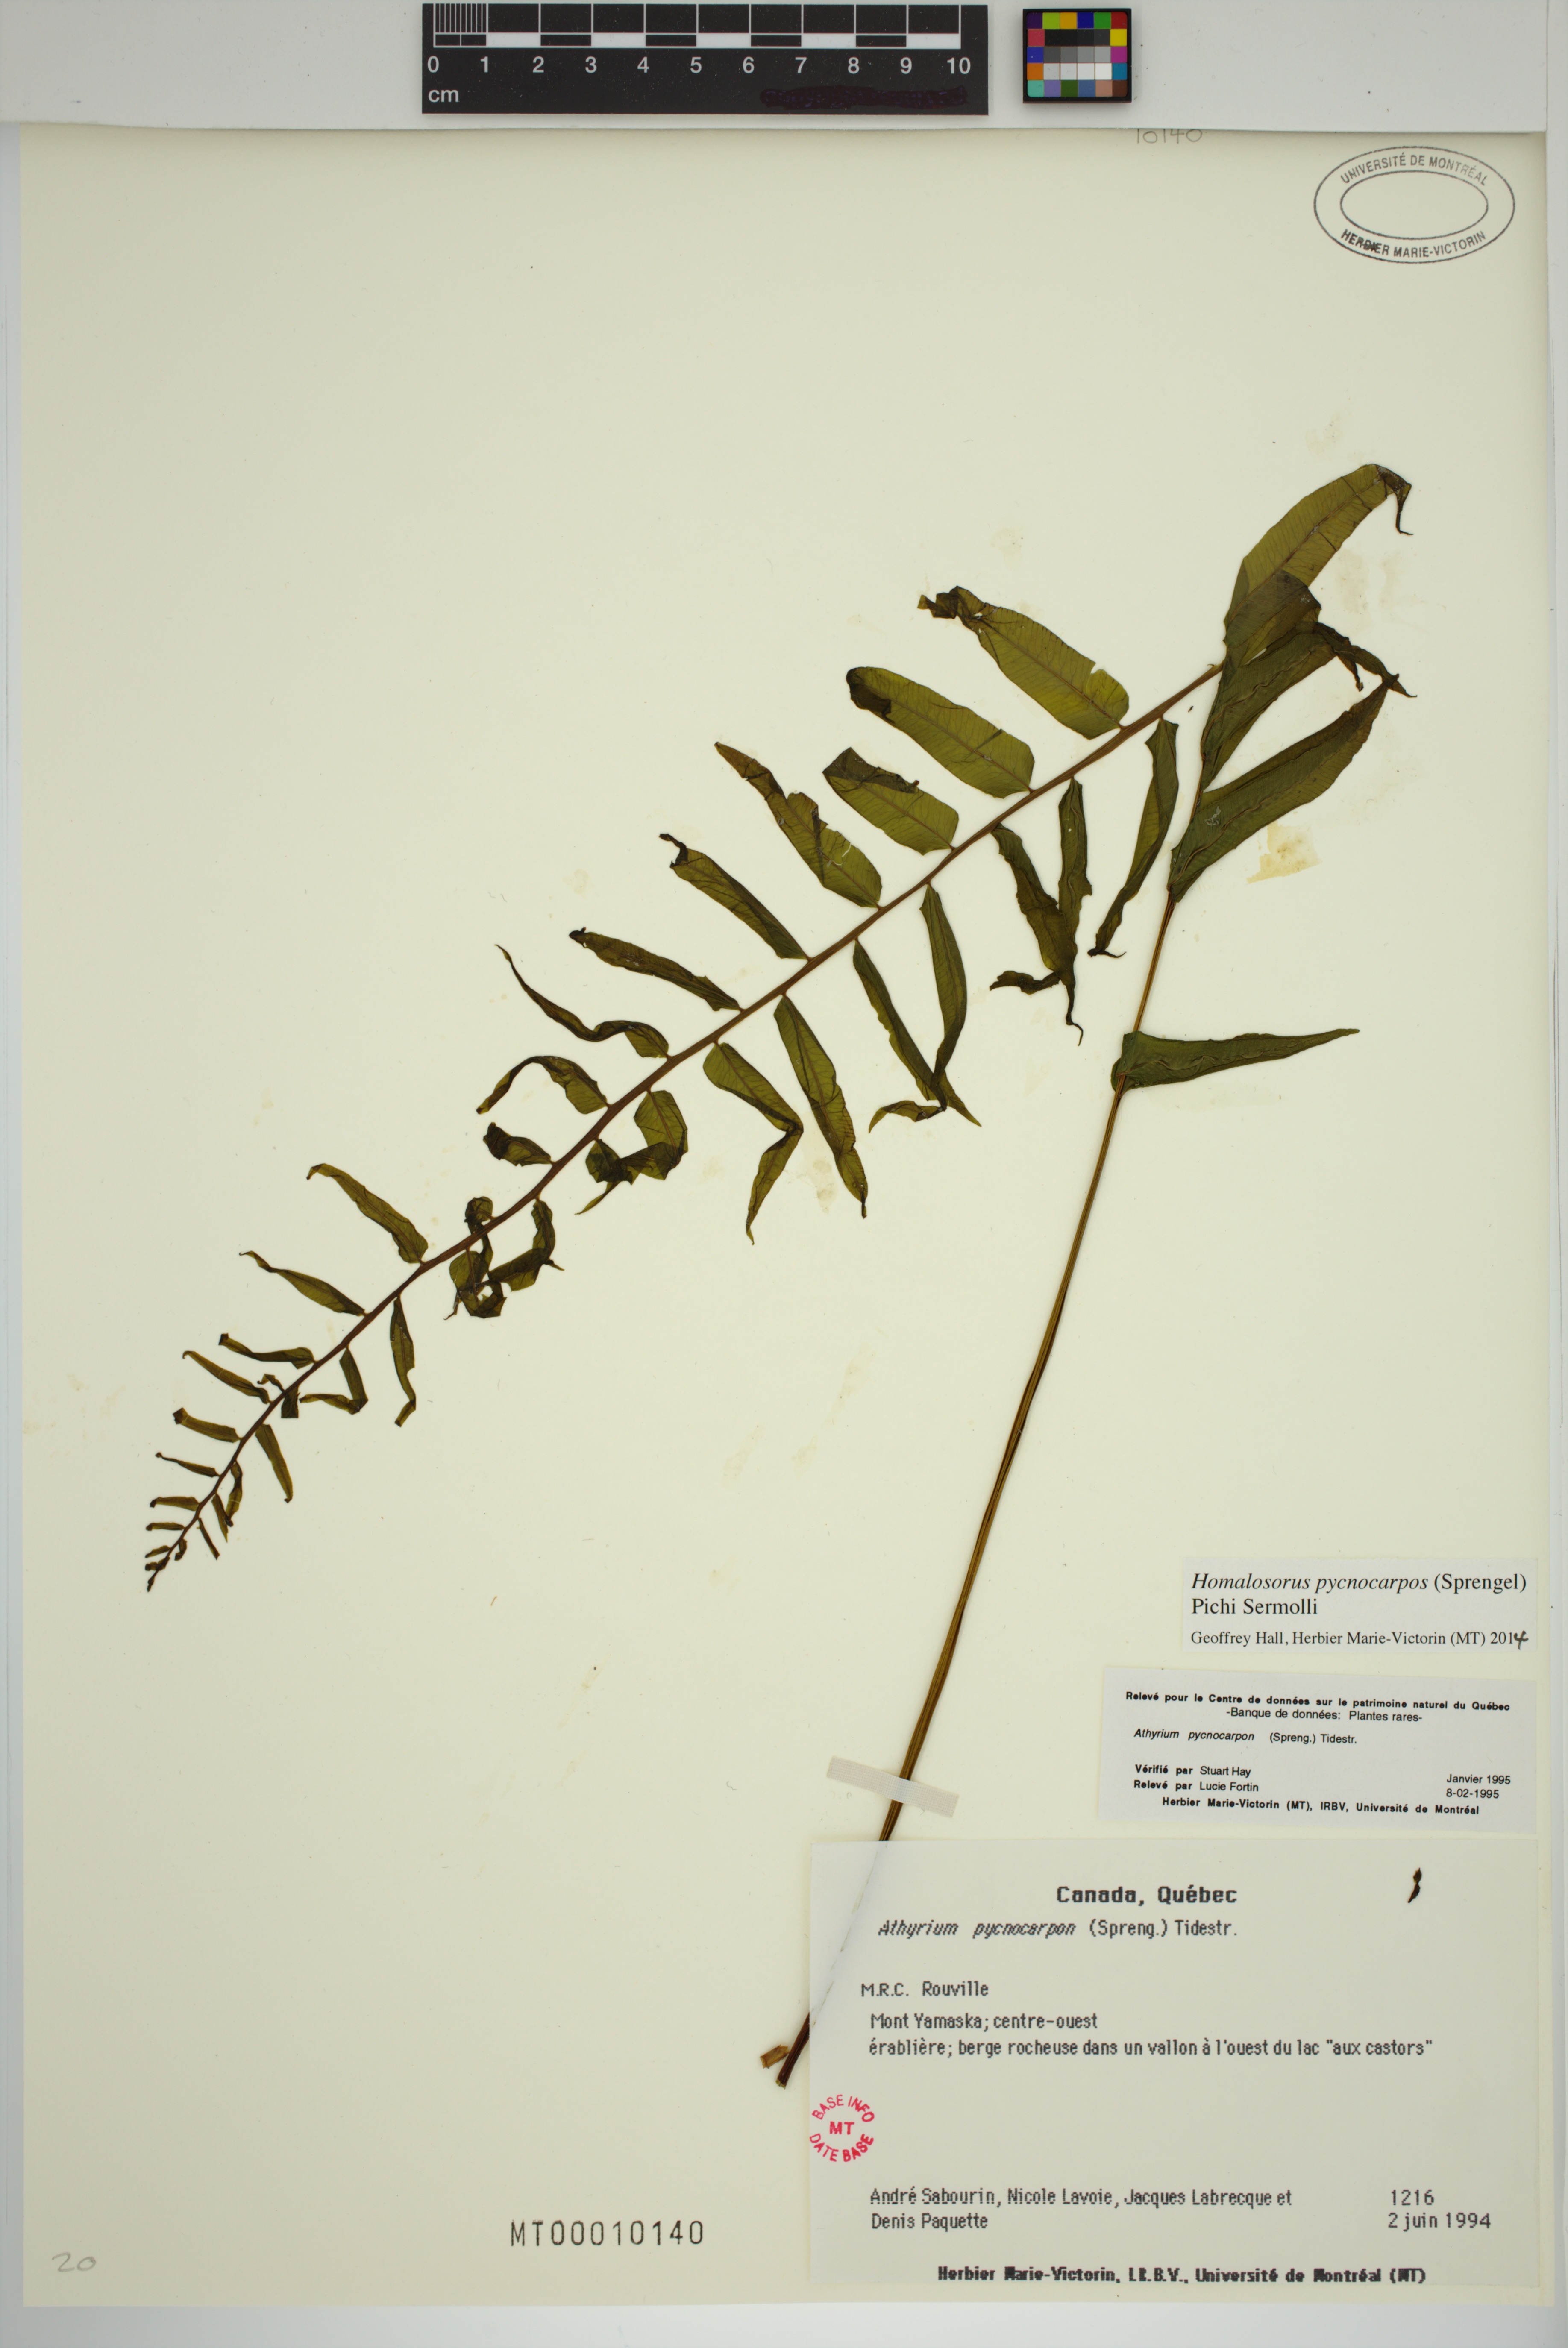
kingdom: Plantae
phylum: Tracheophyta
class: Polypodiopsida
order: Polypodiales
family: Diplaziopsidaceae
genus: Homalosorus
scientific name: Homalosorus pycnocarpos
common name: Glade fern
